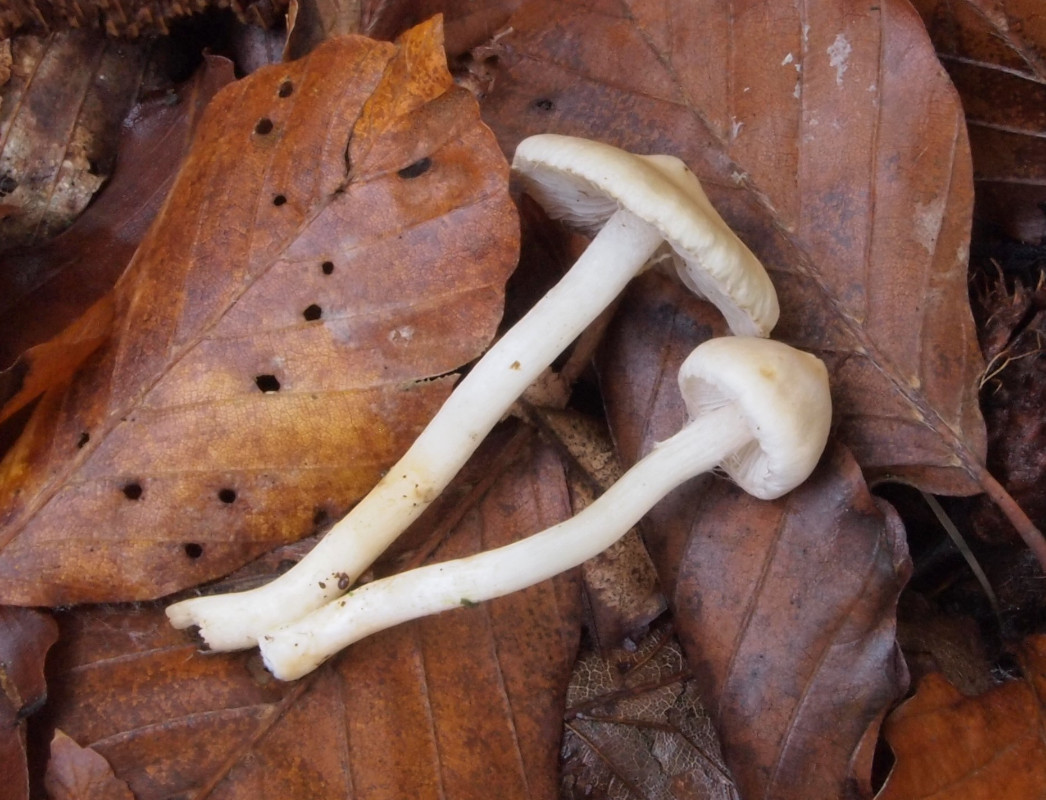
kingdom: Fungi
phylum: Basidiomycota
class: Agaricomycetes
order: Agaricales
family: Inocybaceae
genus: Inocybe
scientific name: Inocybe
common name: trævlhat
